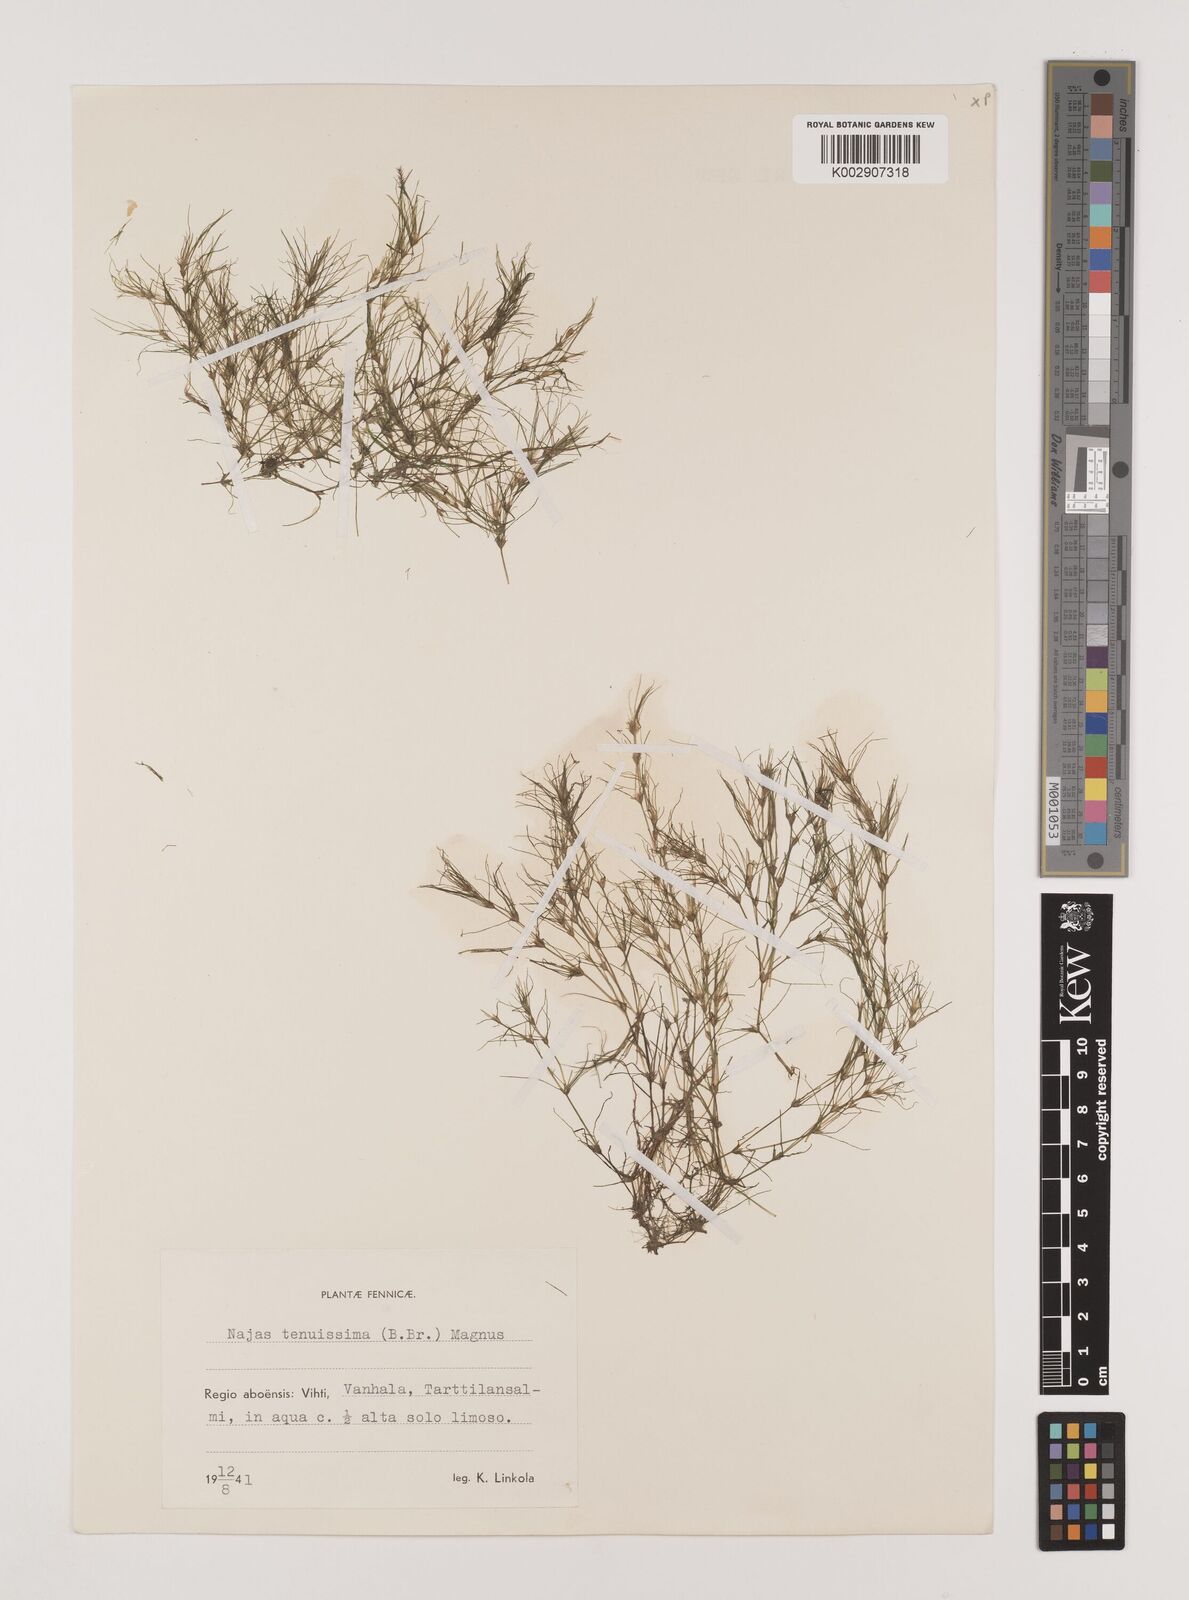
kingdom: Plantae
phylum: Tracheophyta
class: Liliopsida
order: Alismatales
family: Hydrocharitaceae
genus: Najas
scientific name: Najas tenuissima
